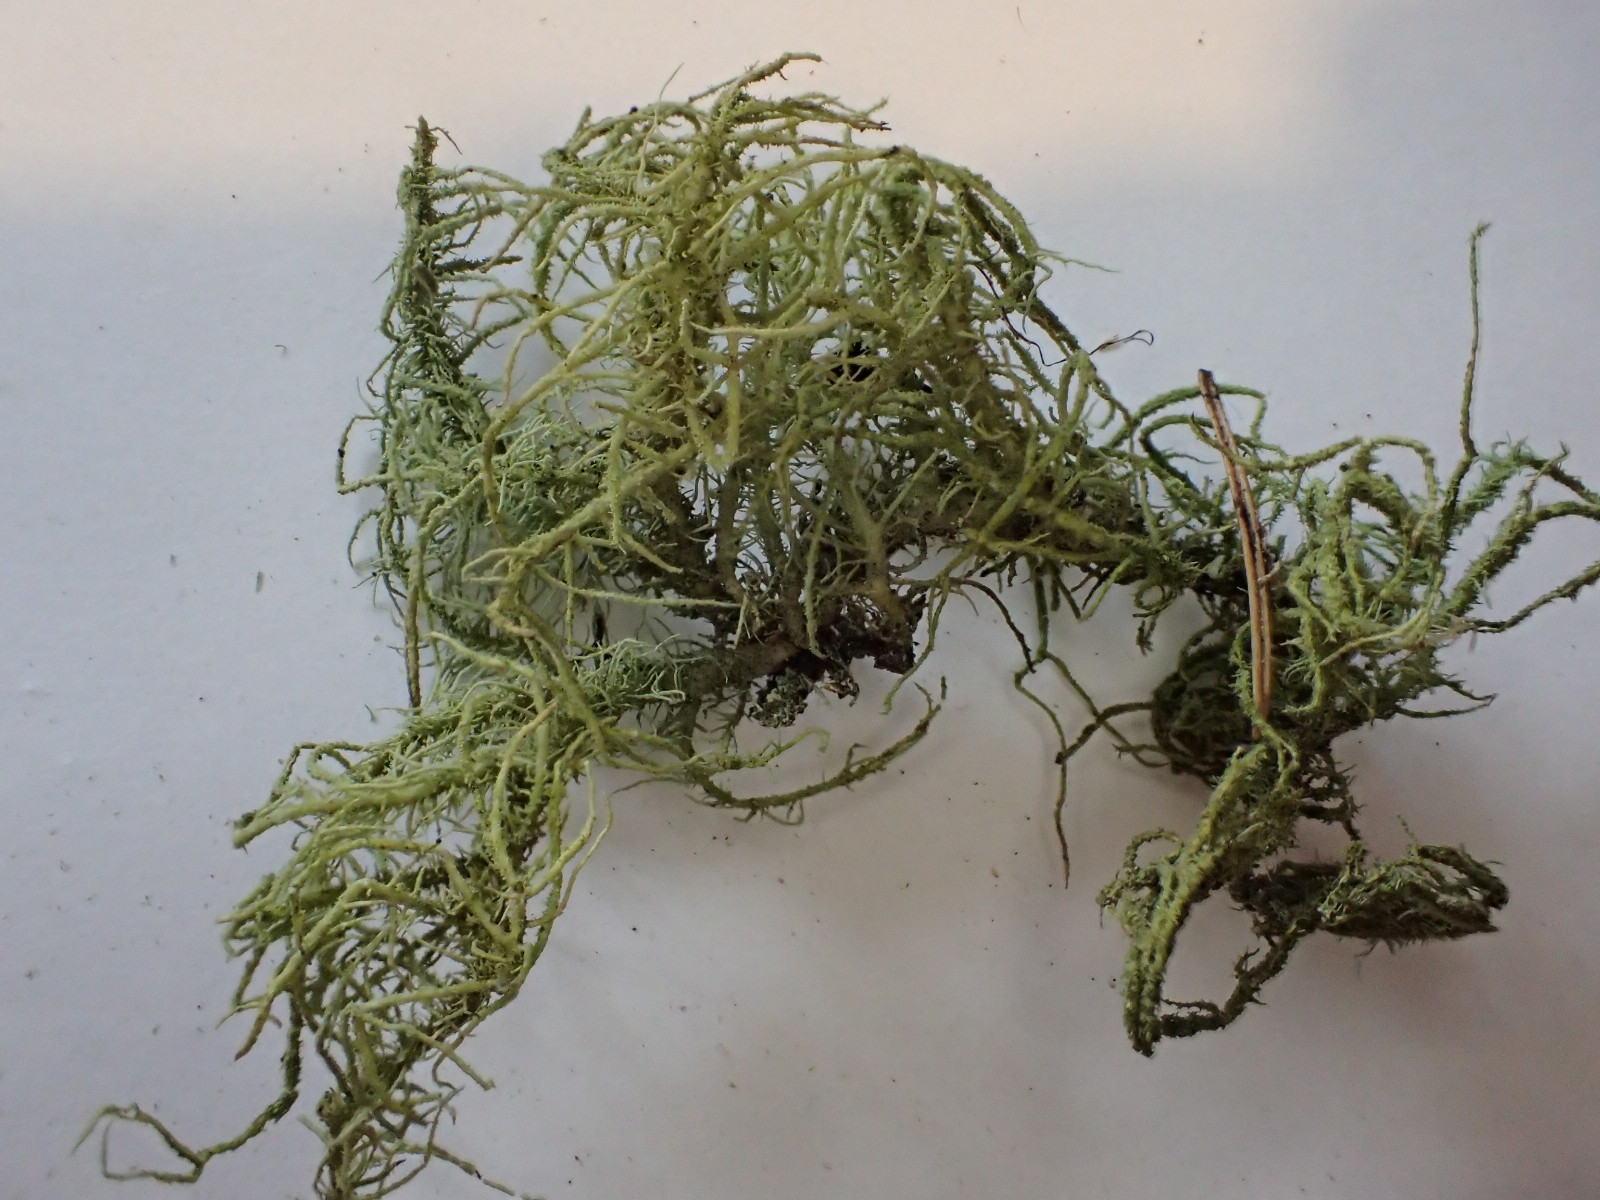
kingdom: Fungi
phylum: Ascomycota
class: Lecanoromycetes
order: Lecanorales
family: Parmeliaceae
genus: Usnea
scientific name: Usnea hirta
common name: liden skæglav
